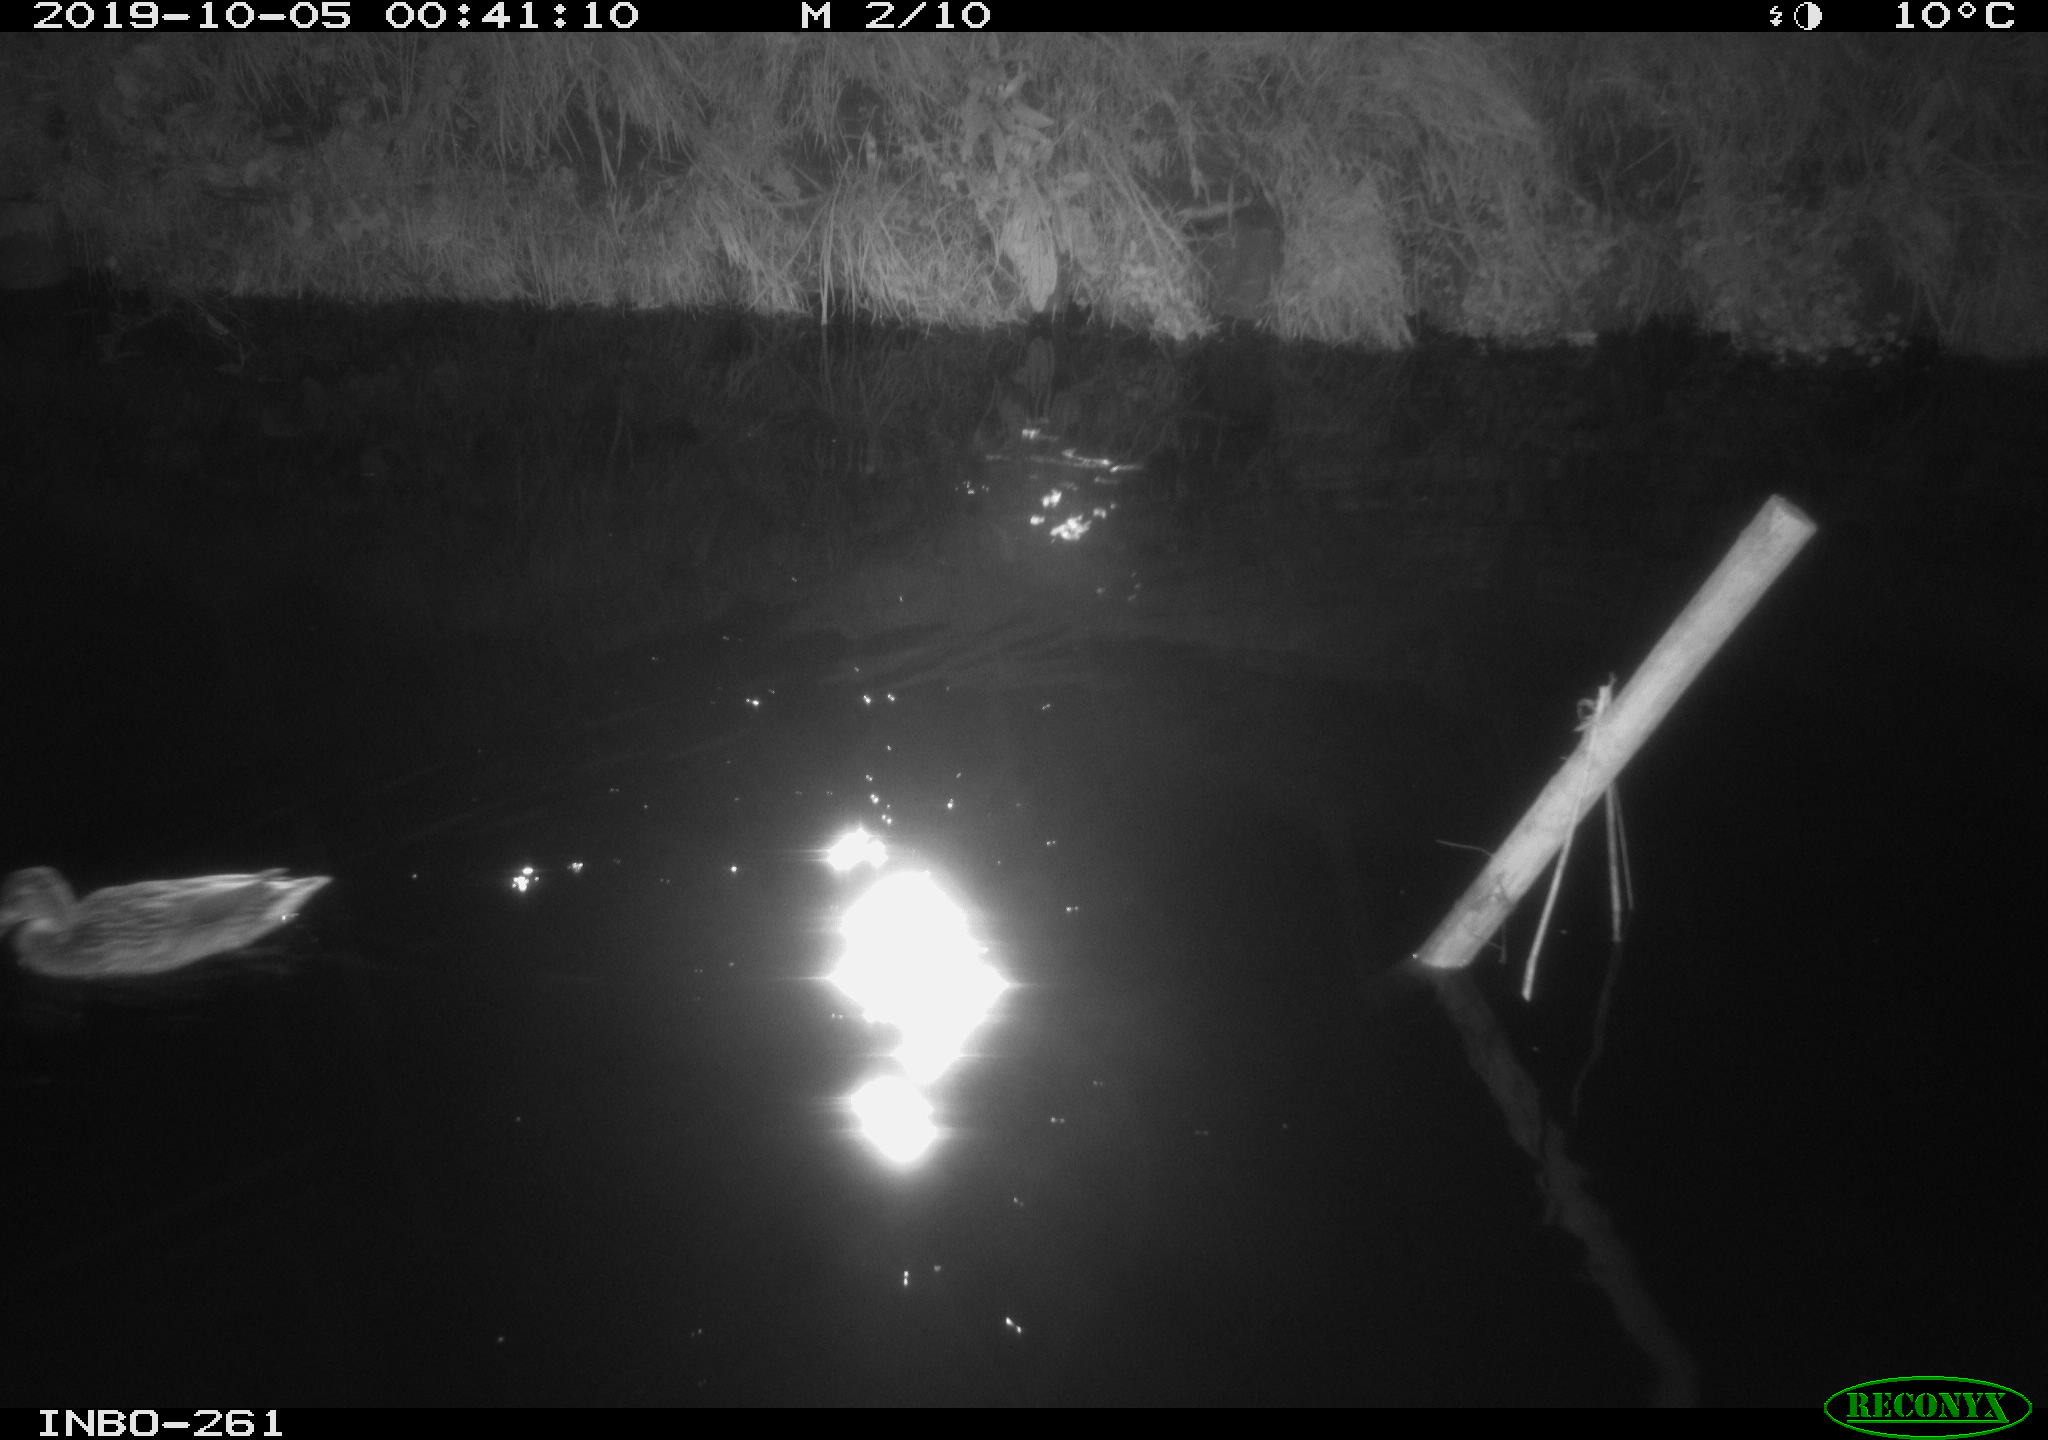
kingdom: Animalia
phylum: Chordata
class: Aves
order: Anseriformes
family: Anatidae
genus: Anas
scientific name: Anas platyrhynchos
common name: Mallard
